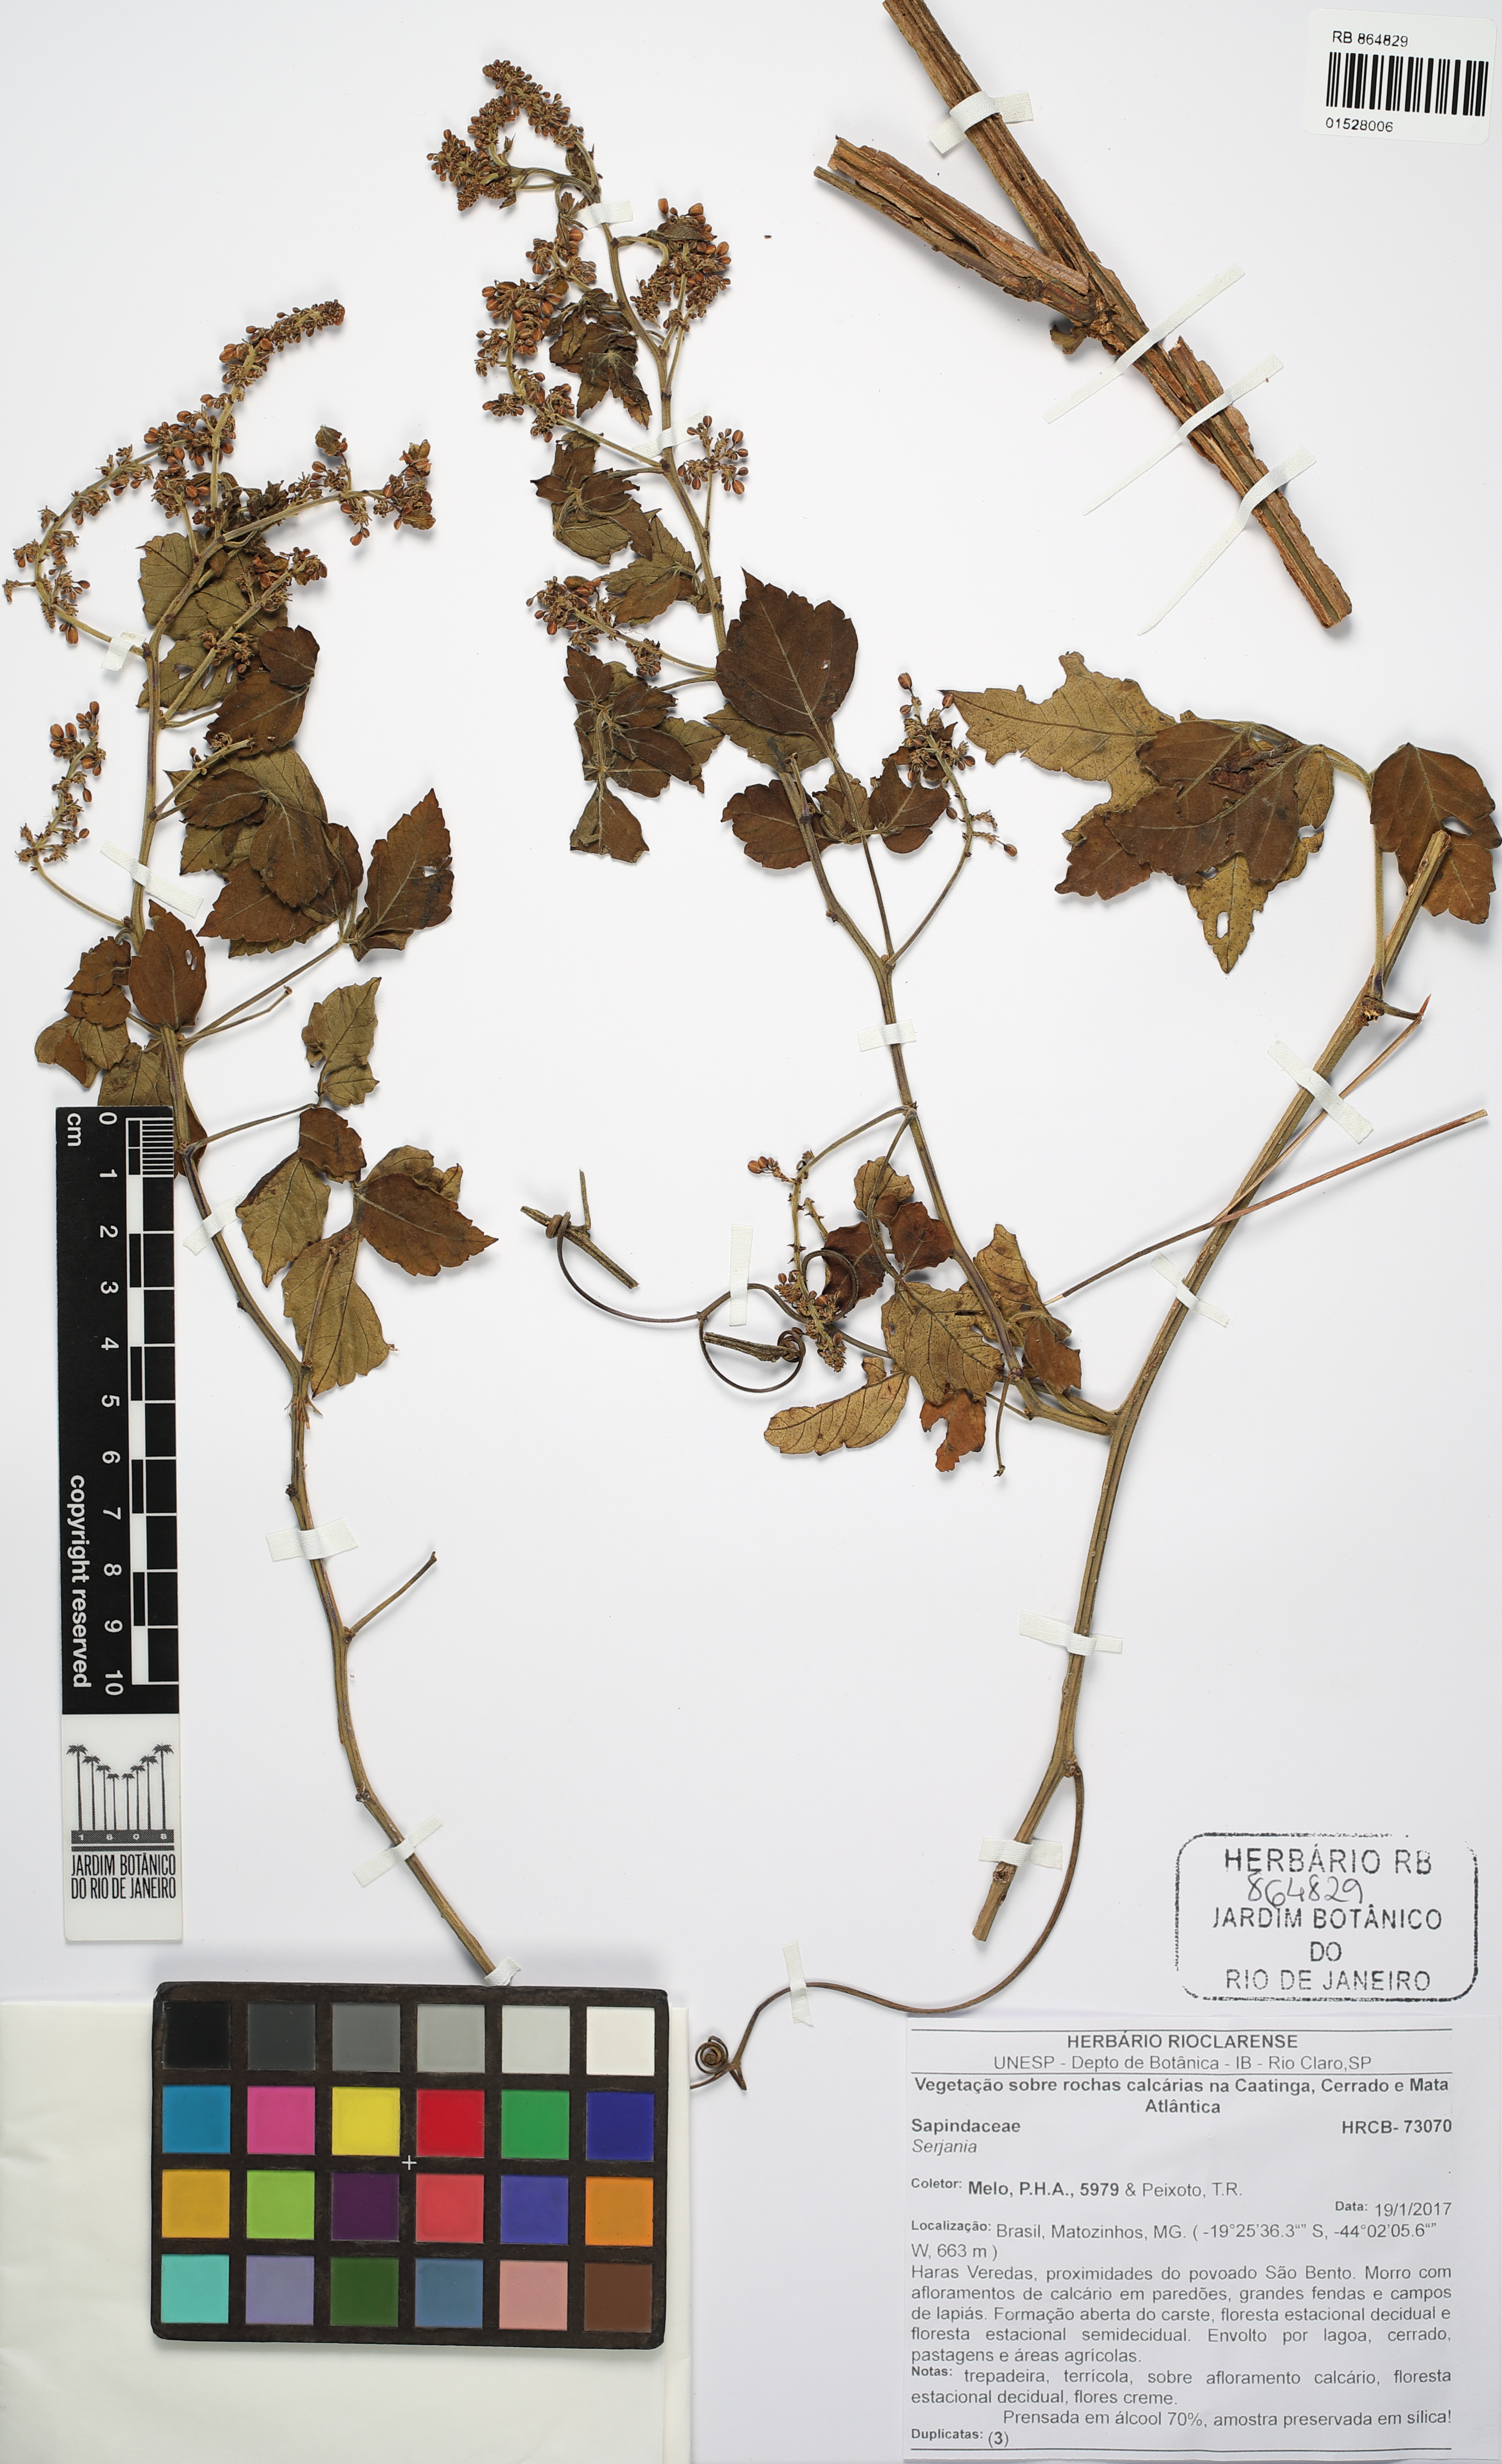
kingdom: Plantae
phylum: Tracheophyta
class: Magnoliopsida
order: Sapindales
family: Sapindaceae
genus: Serjania
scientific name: Serjania
